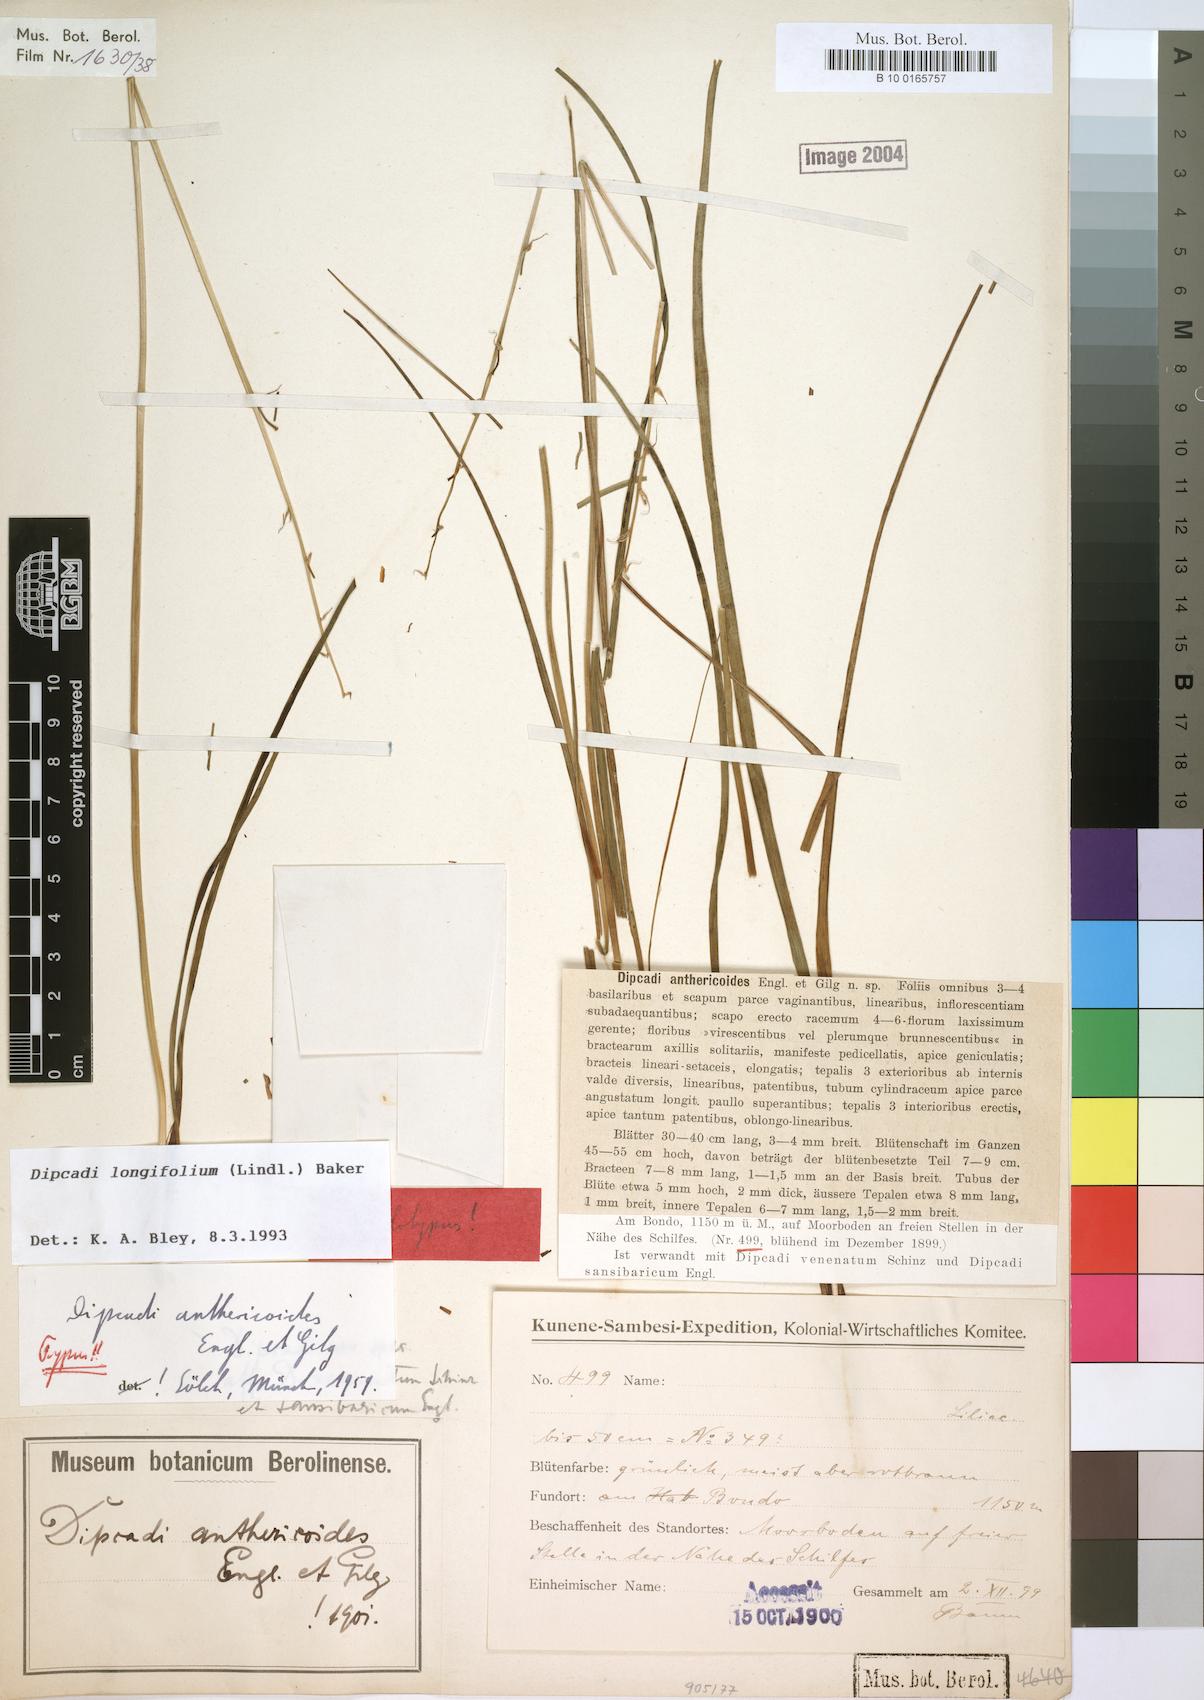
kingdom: Plantae
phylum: Tracheophyta
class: Liliopsida
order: Asparagales
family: Asparagaceae
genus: Dipcadi
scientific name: Dipcadi longifolium
